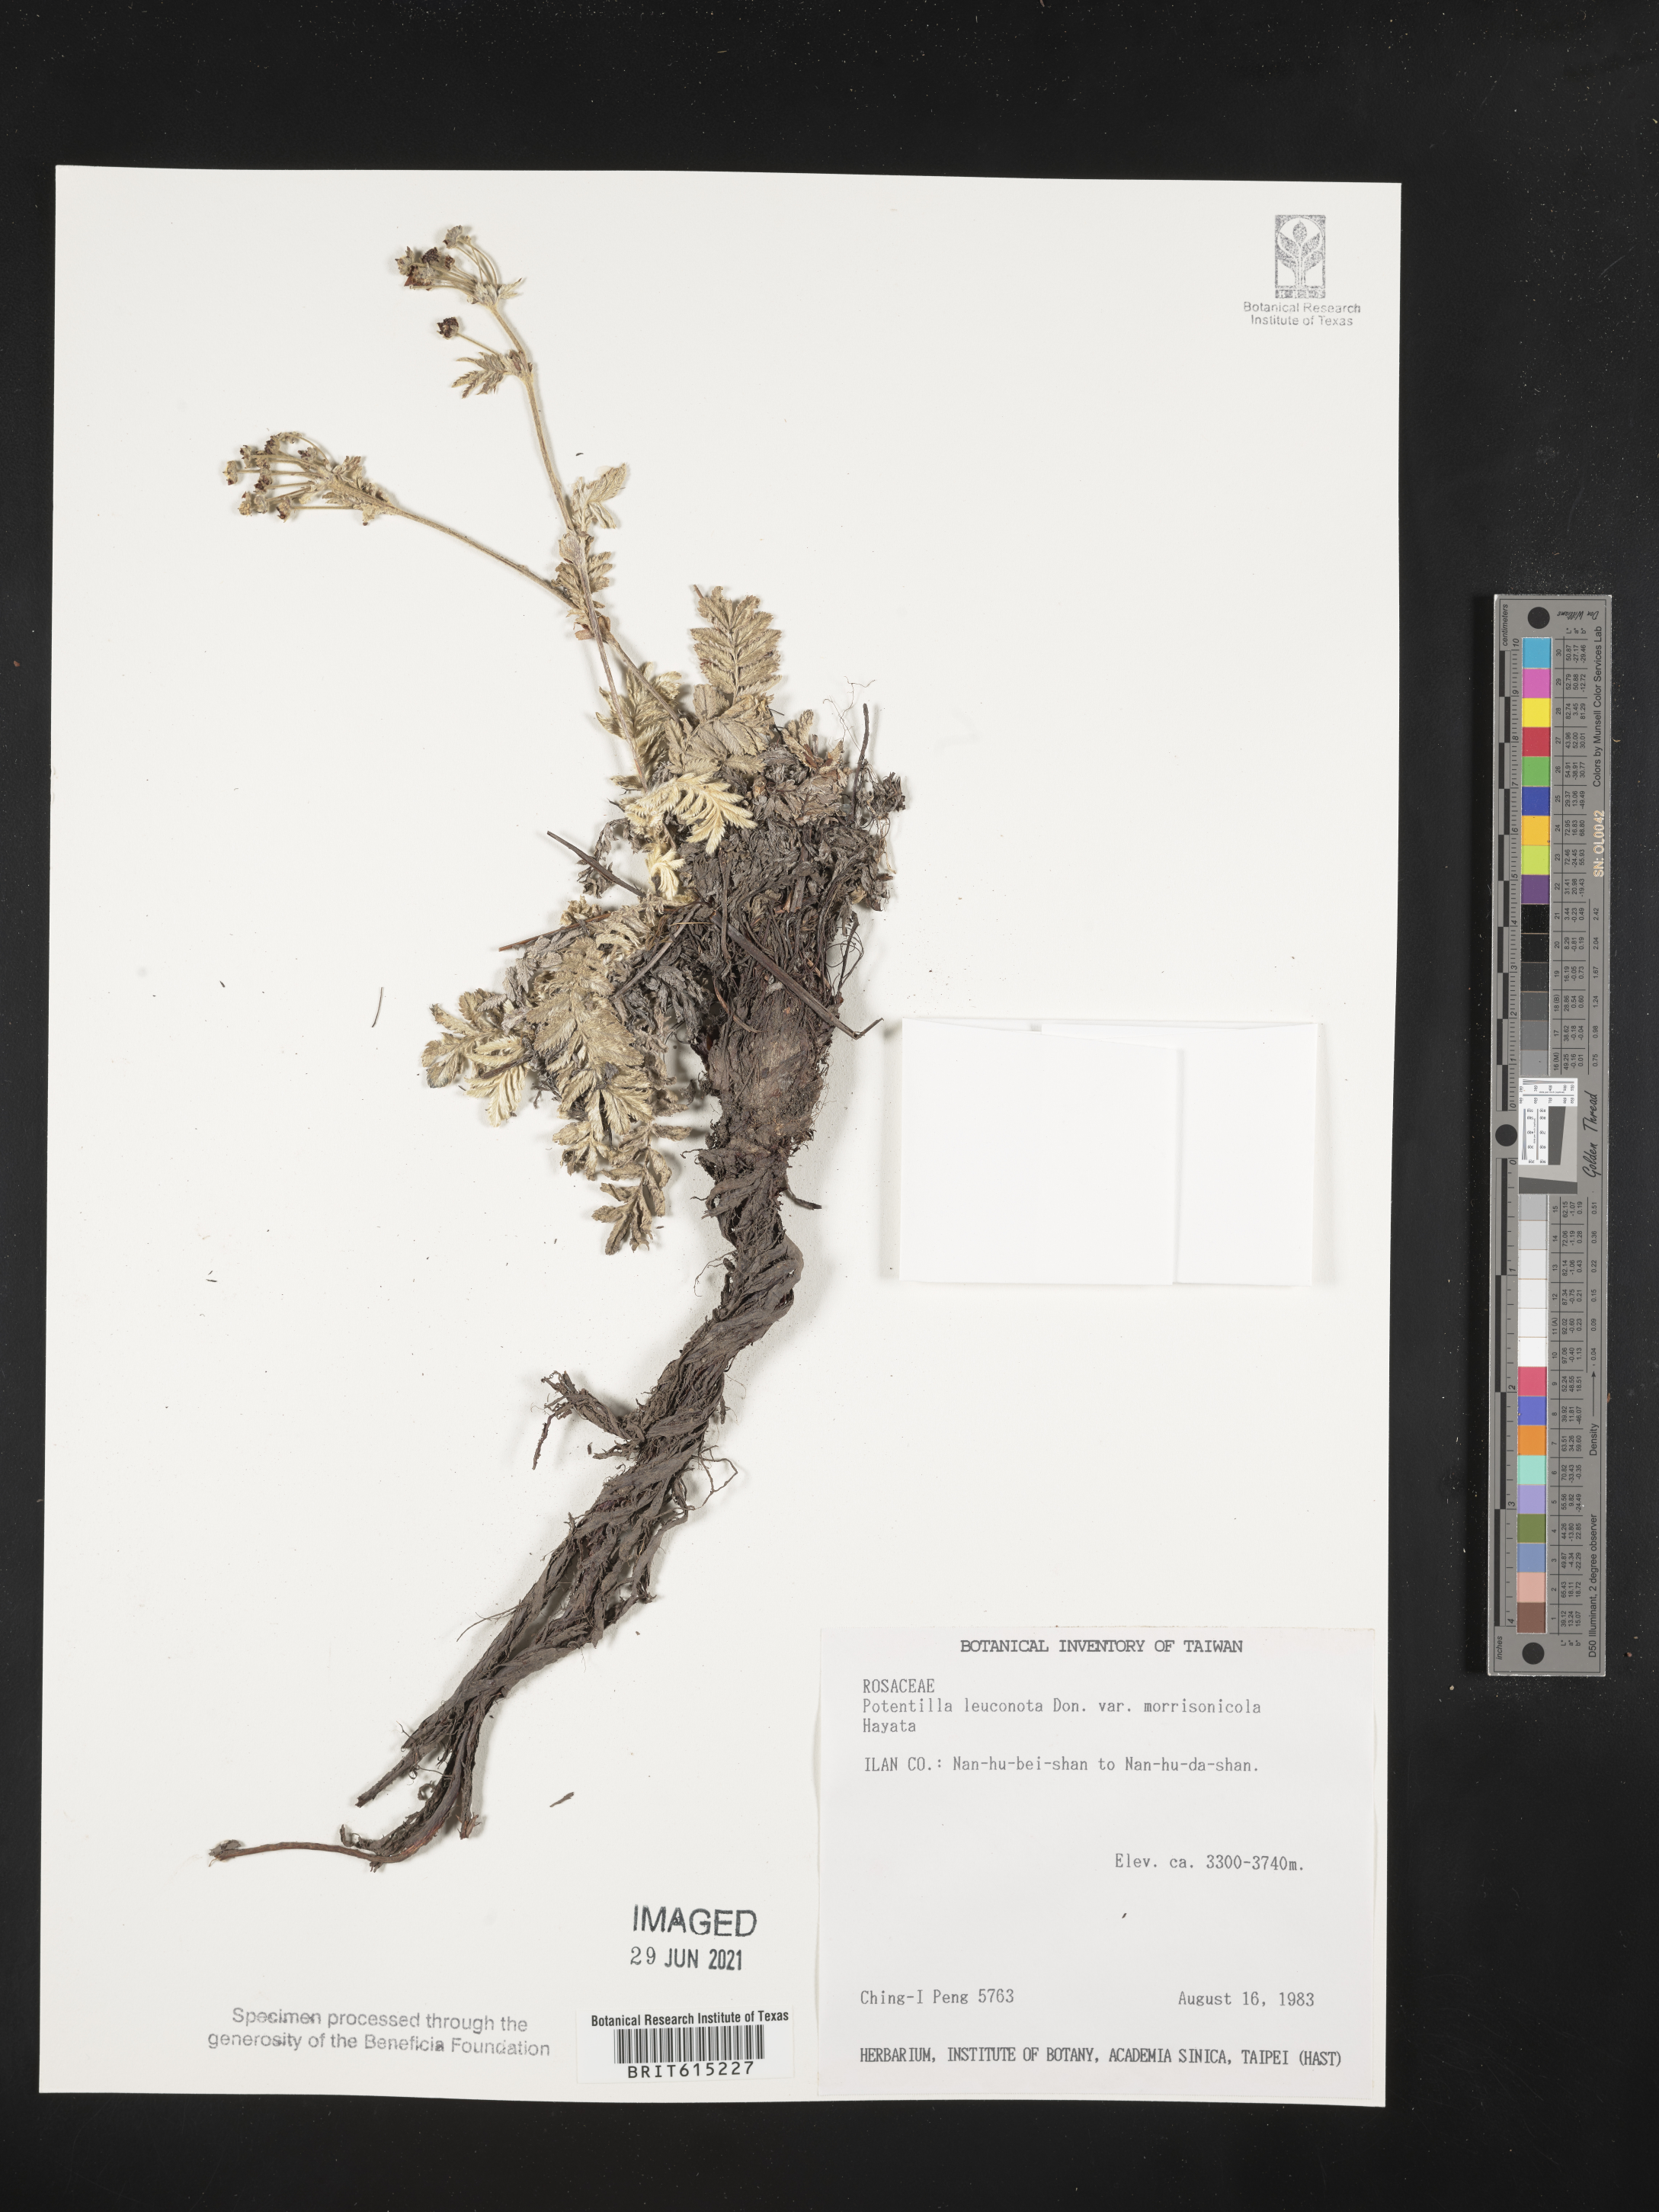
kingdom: Plantae
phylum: Tracheophyta
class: Magnoliopsida
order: Rosales
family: Rosaceae
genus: Argentina
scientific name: Argentina leuconota
